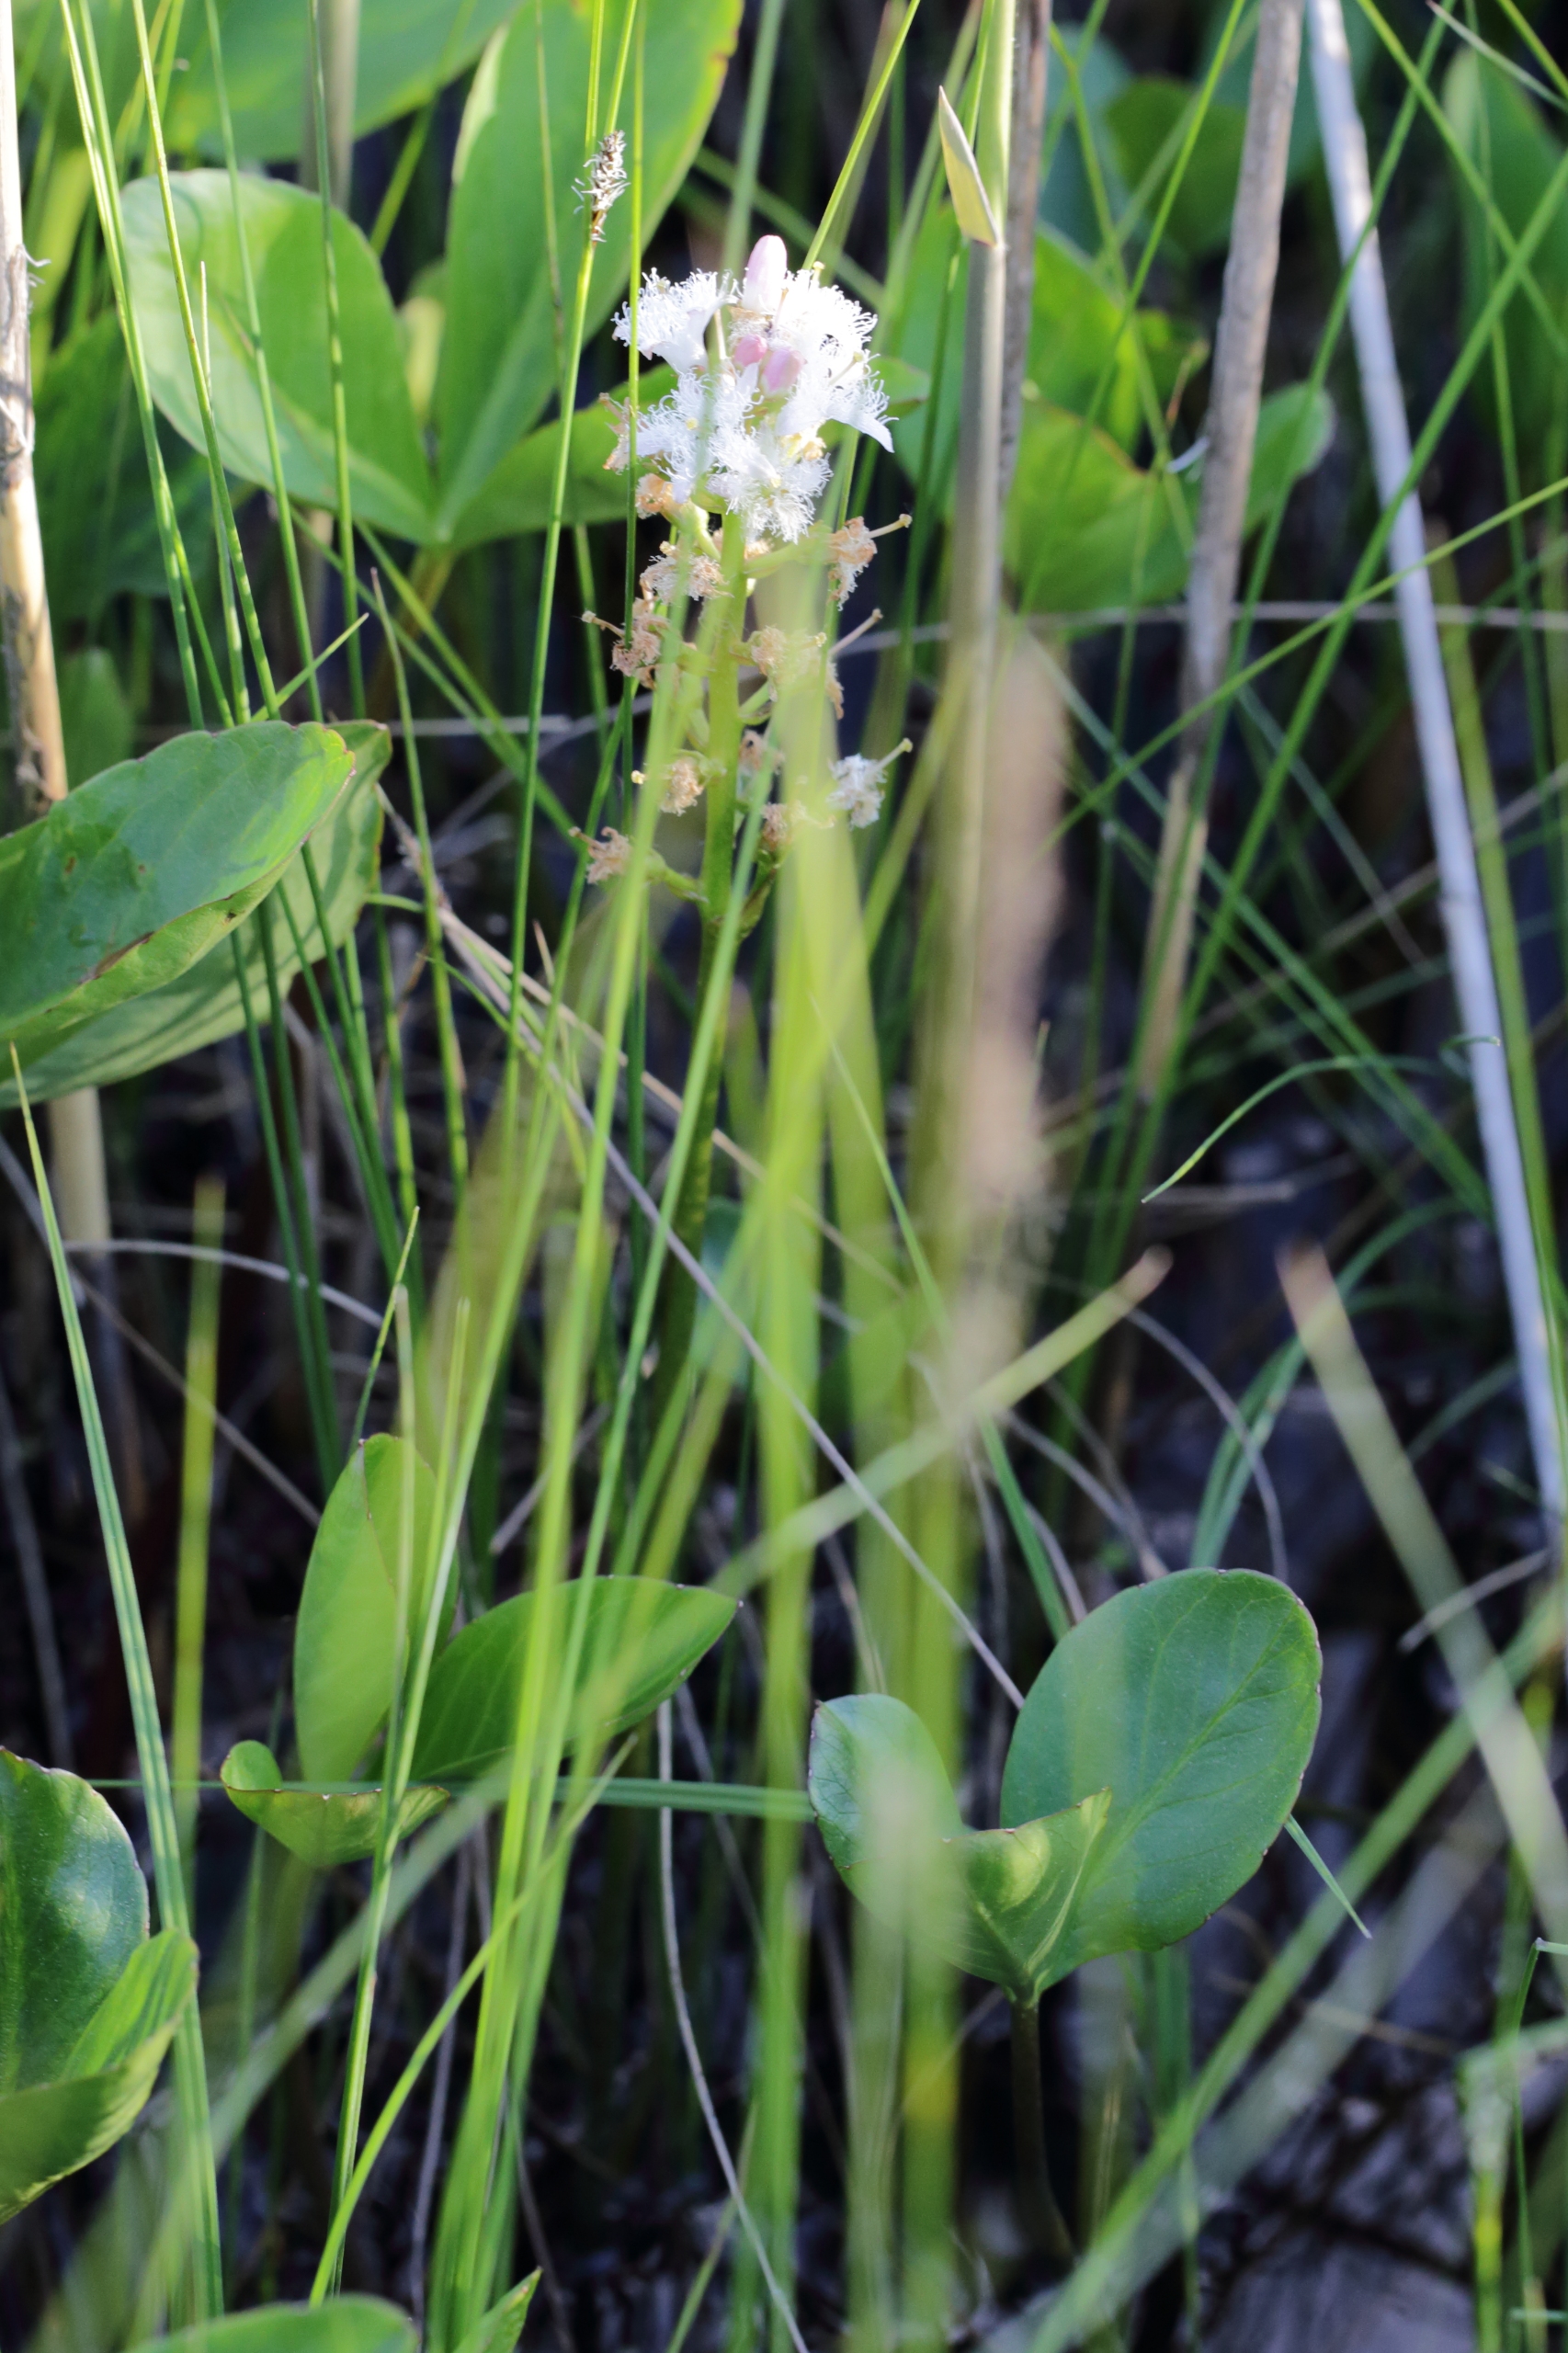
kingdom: Plantae
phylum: Tracheophyta
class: Magnoliopsida
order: Asterales
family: Menyanthaceae
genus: Menyanthes
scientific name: Menyanthes trifoliata
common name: Bukkeblad
